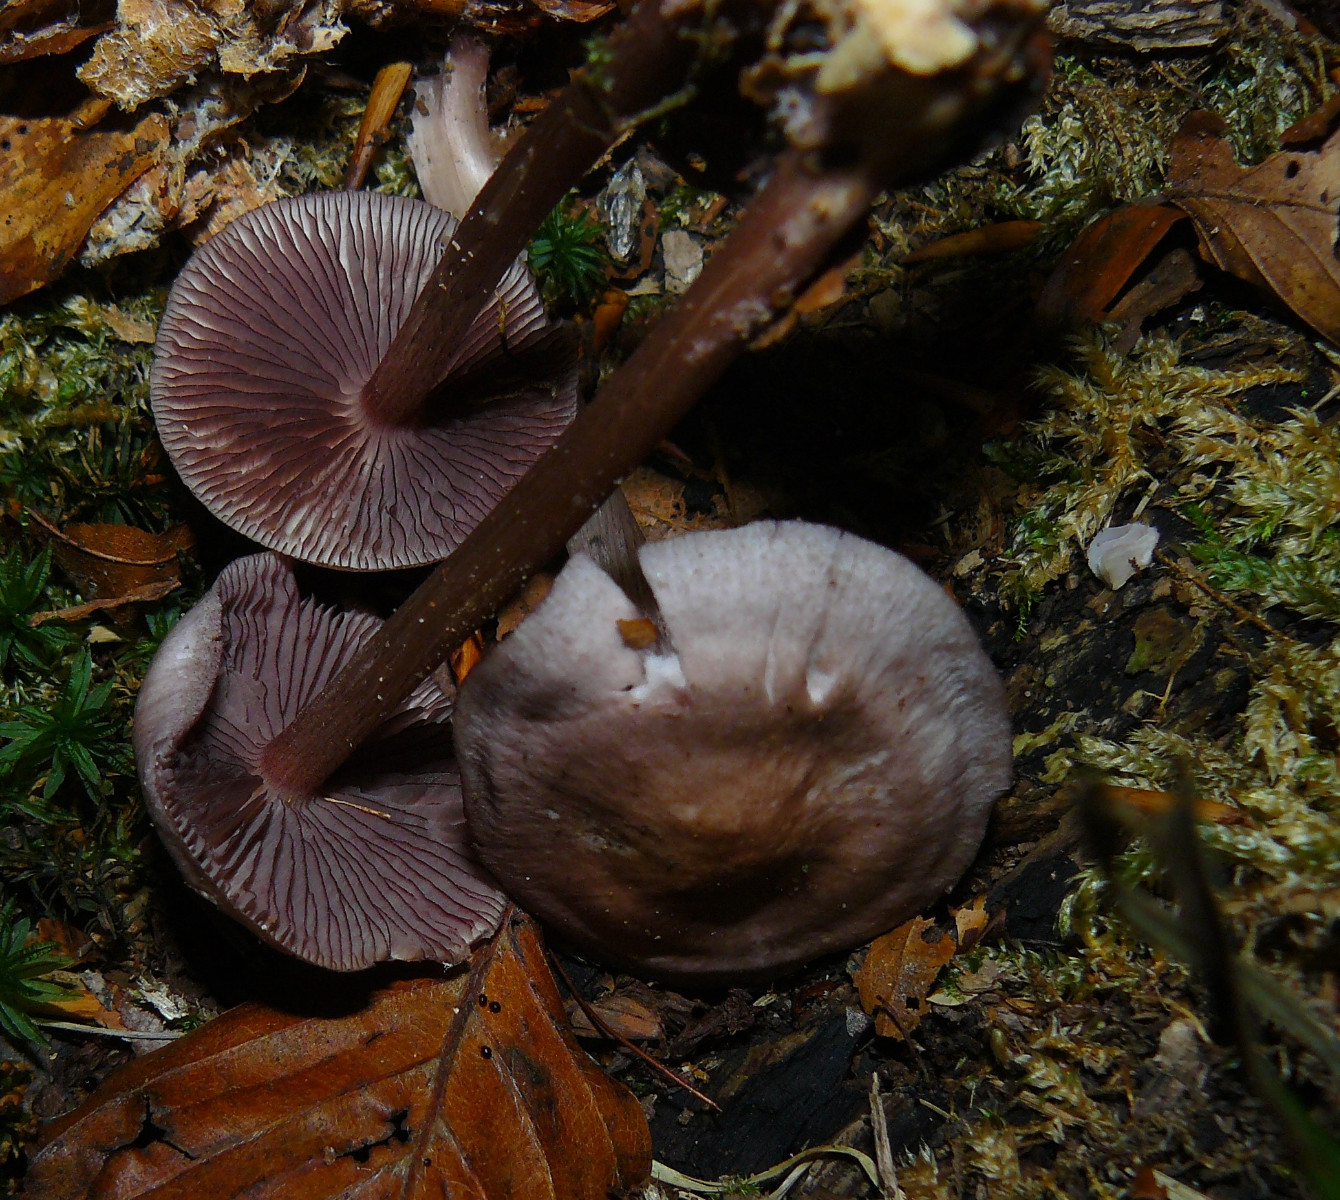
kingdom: Fungi
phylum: Basidiomycota
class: Agaricomycetes
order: Agaricales
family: Mycenaceae
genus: Mycena
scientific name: Mycena pelianthina
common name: mørkbladet huesvamp
